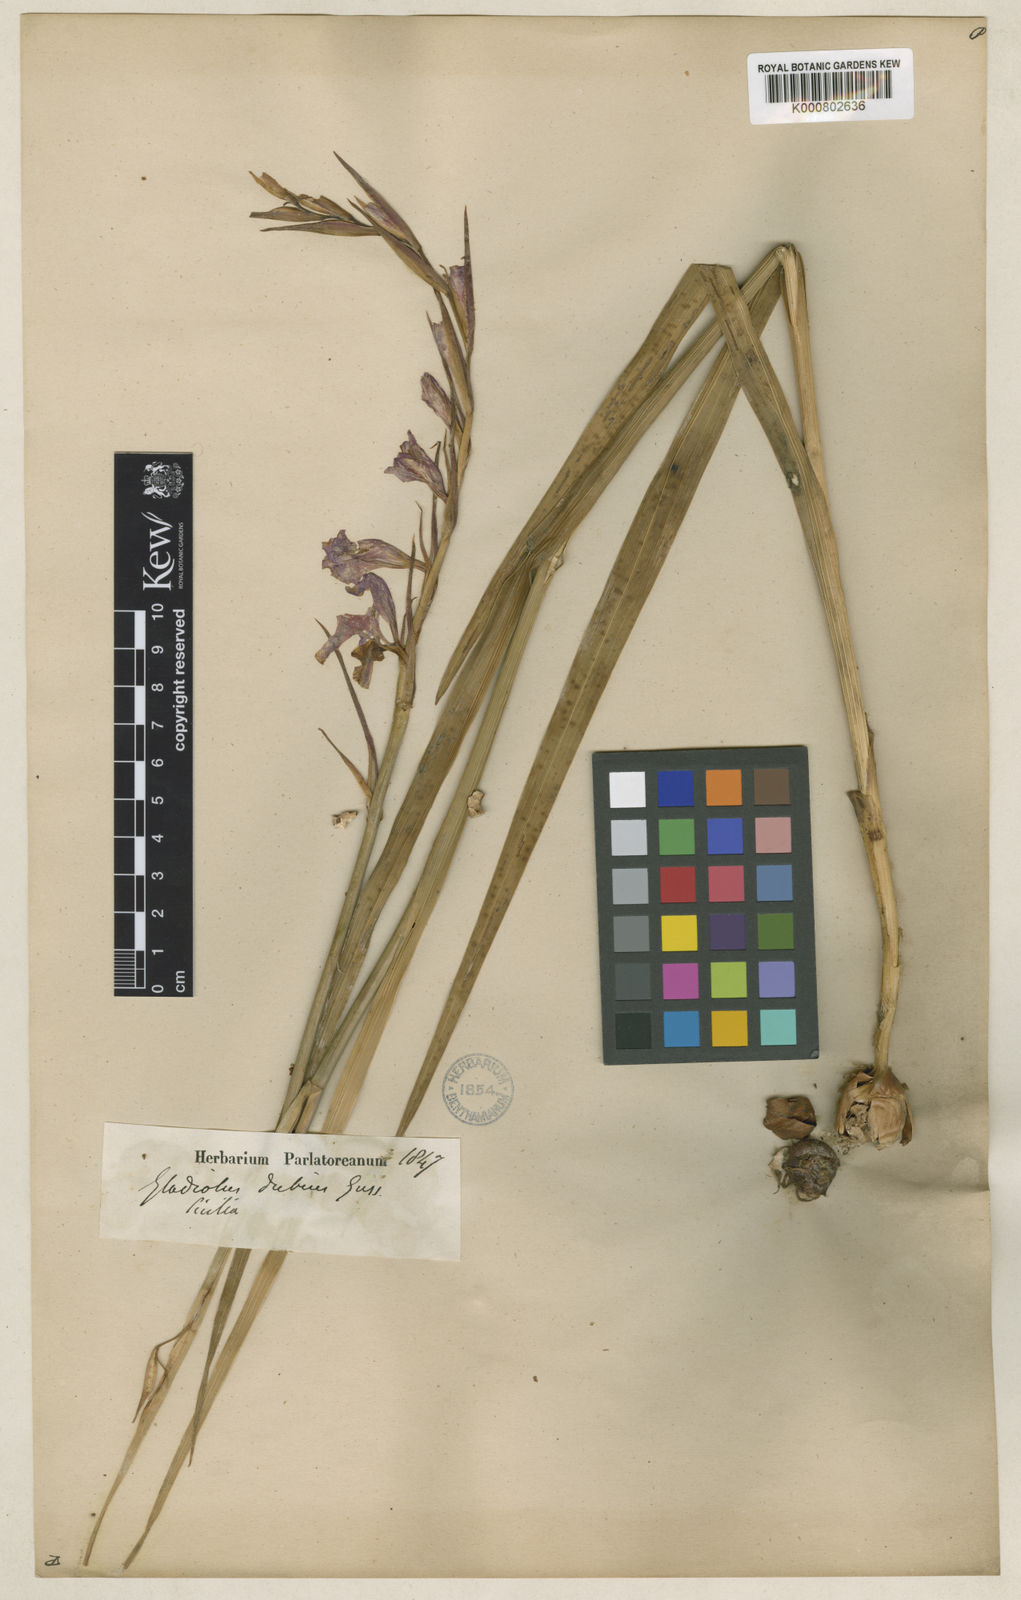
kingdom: Plantae
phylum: Tracheophyta
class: Liliopsida
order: Asparagales
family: Iridaceae
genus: Gladiolus
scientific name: Gladiolus dubius
